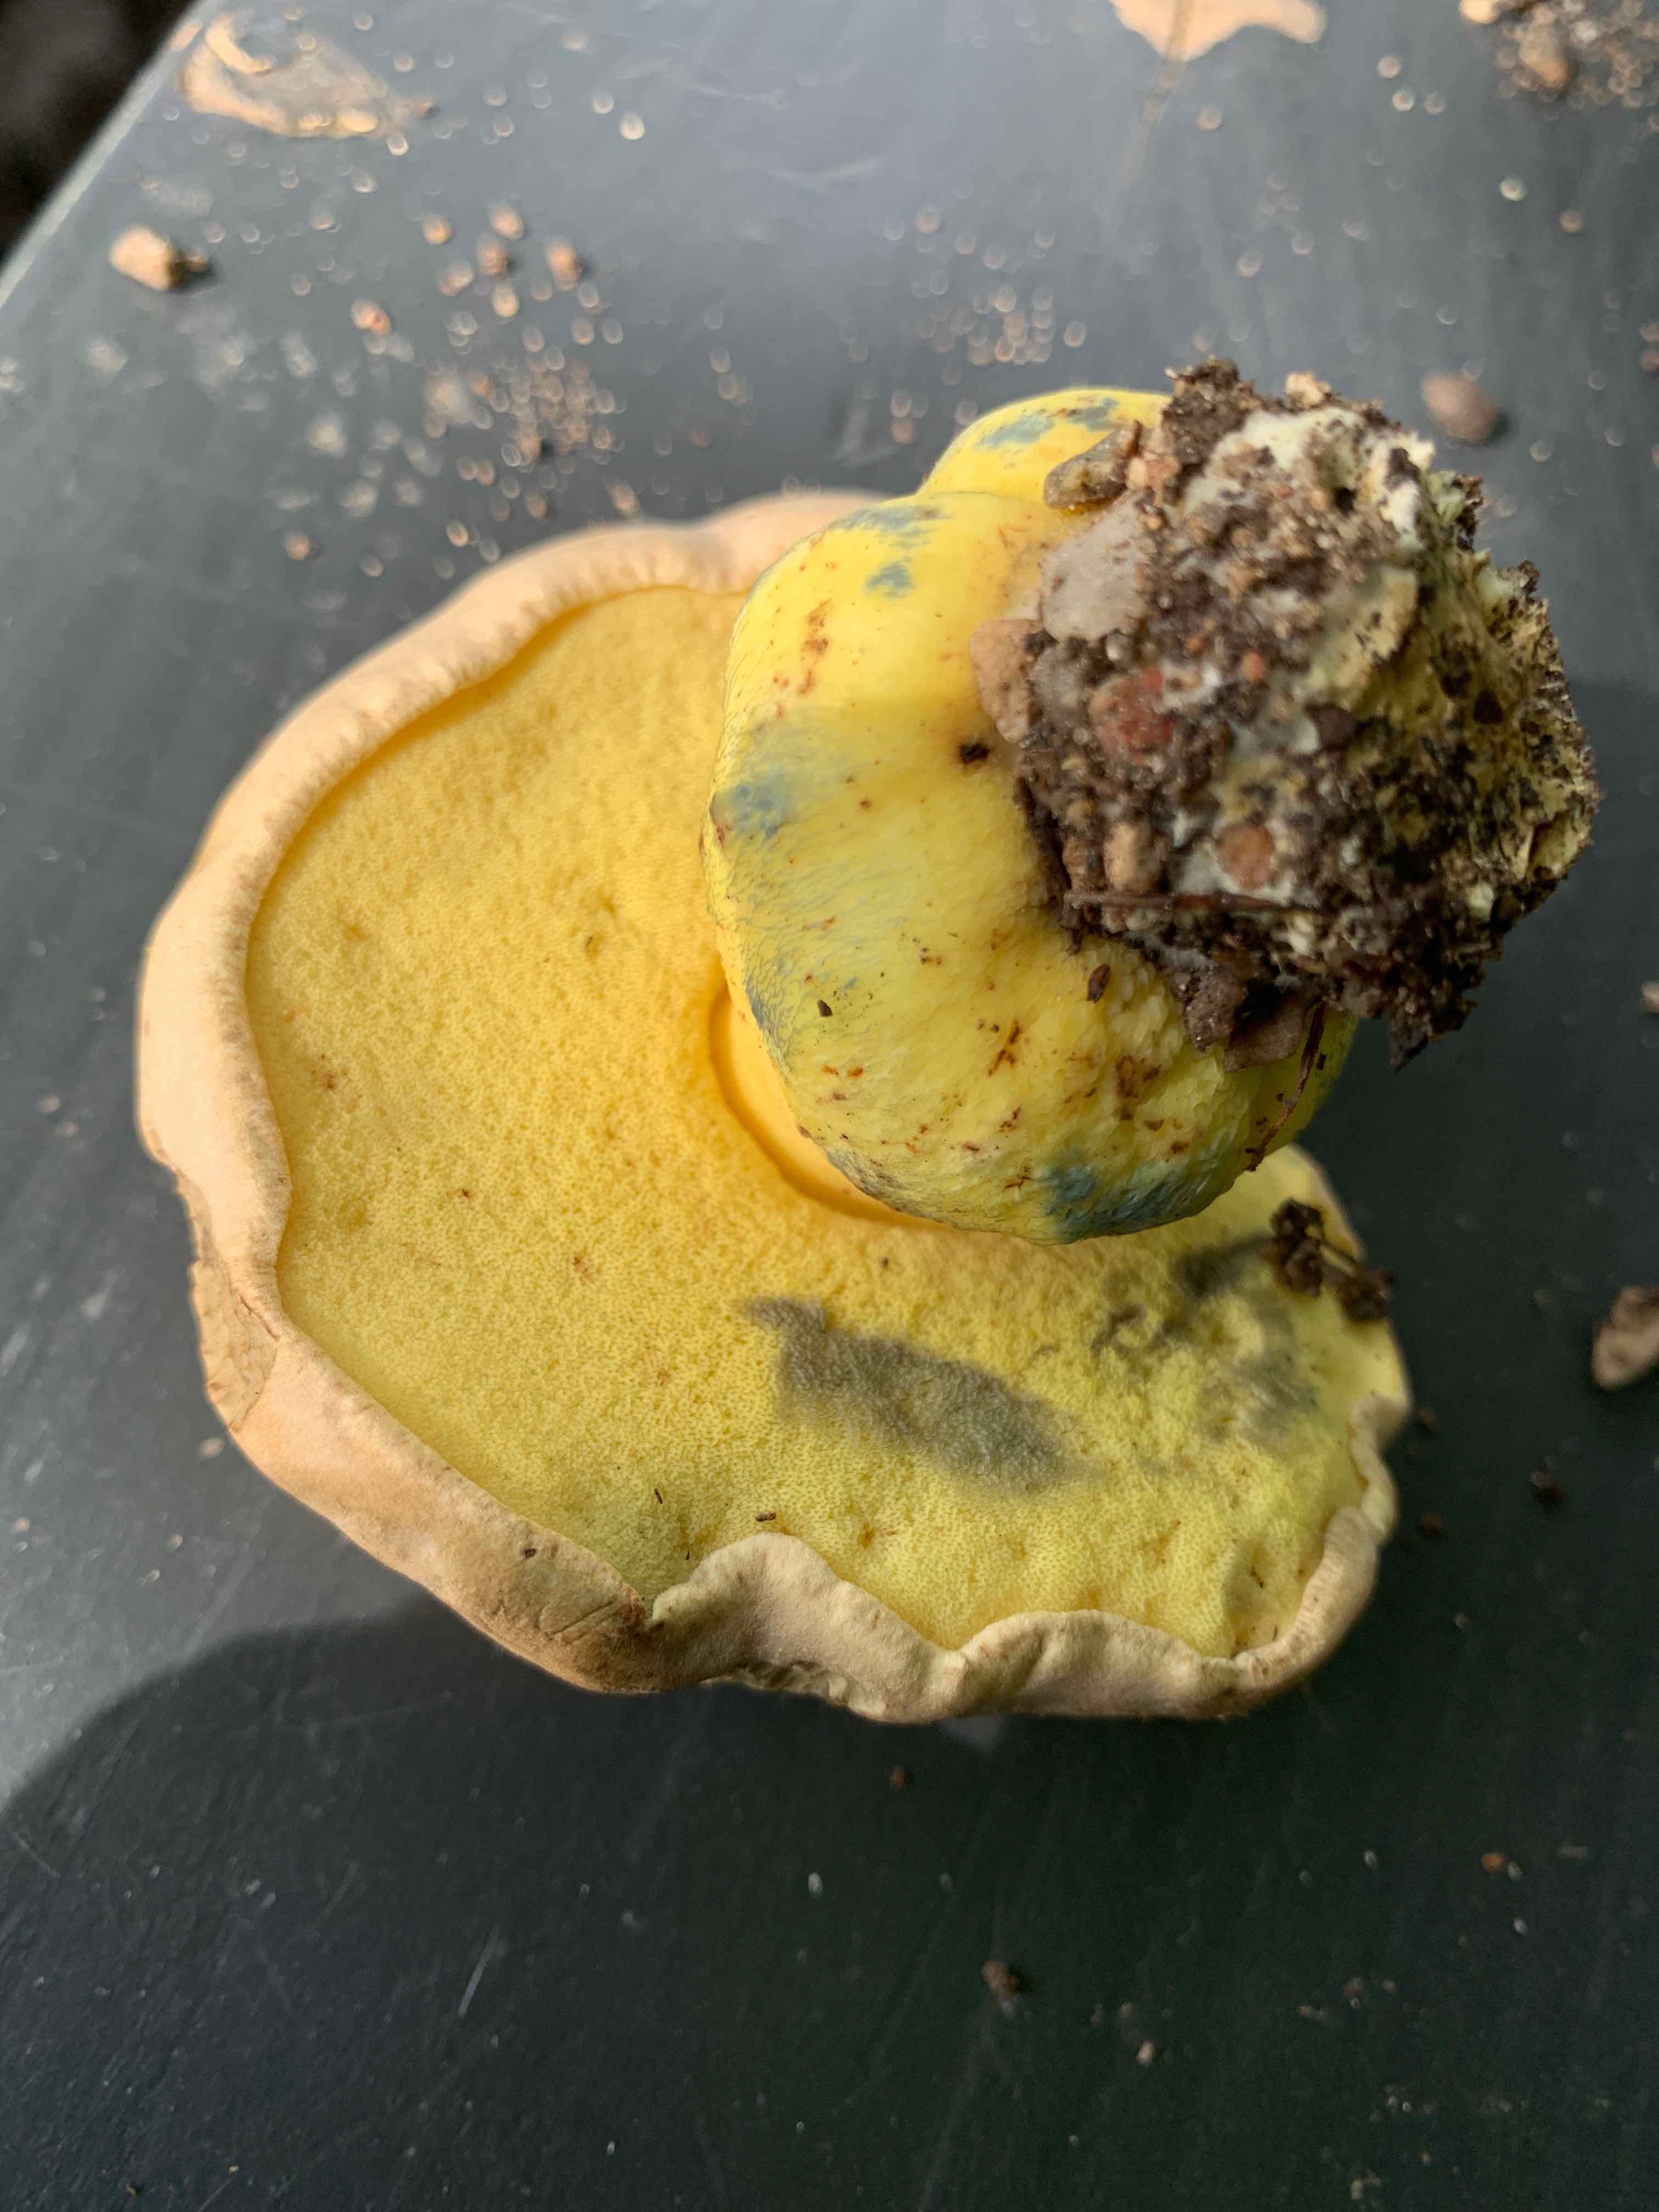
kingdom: Fungi
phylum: Basidiomycota
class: Agaricomycetes
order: Boletales
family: Boletaceae
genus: Caloboletus
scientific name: Caloboletus radicans
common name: rod-rørhat
